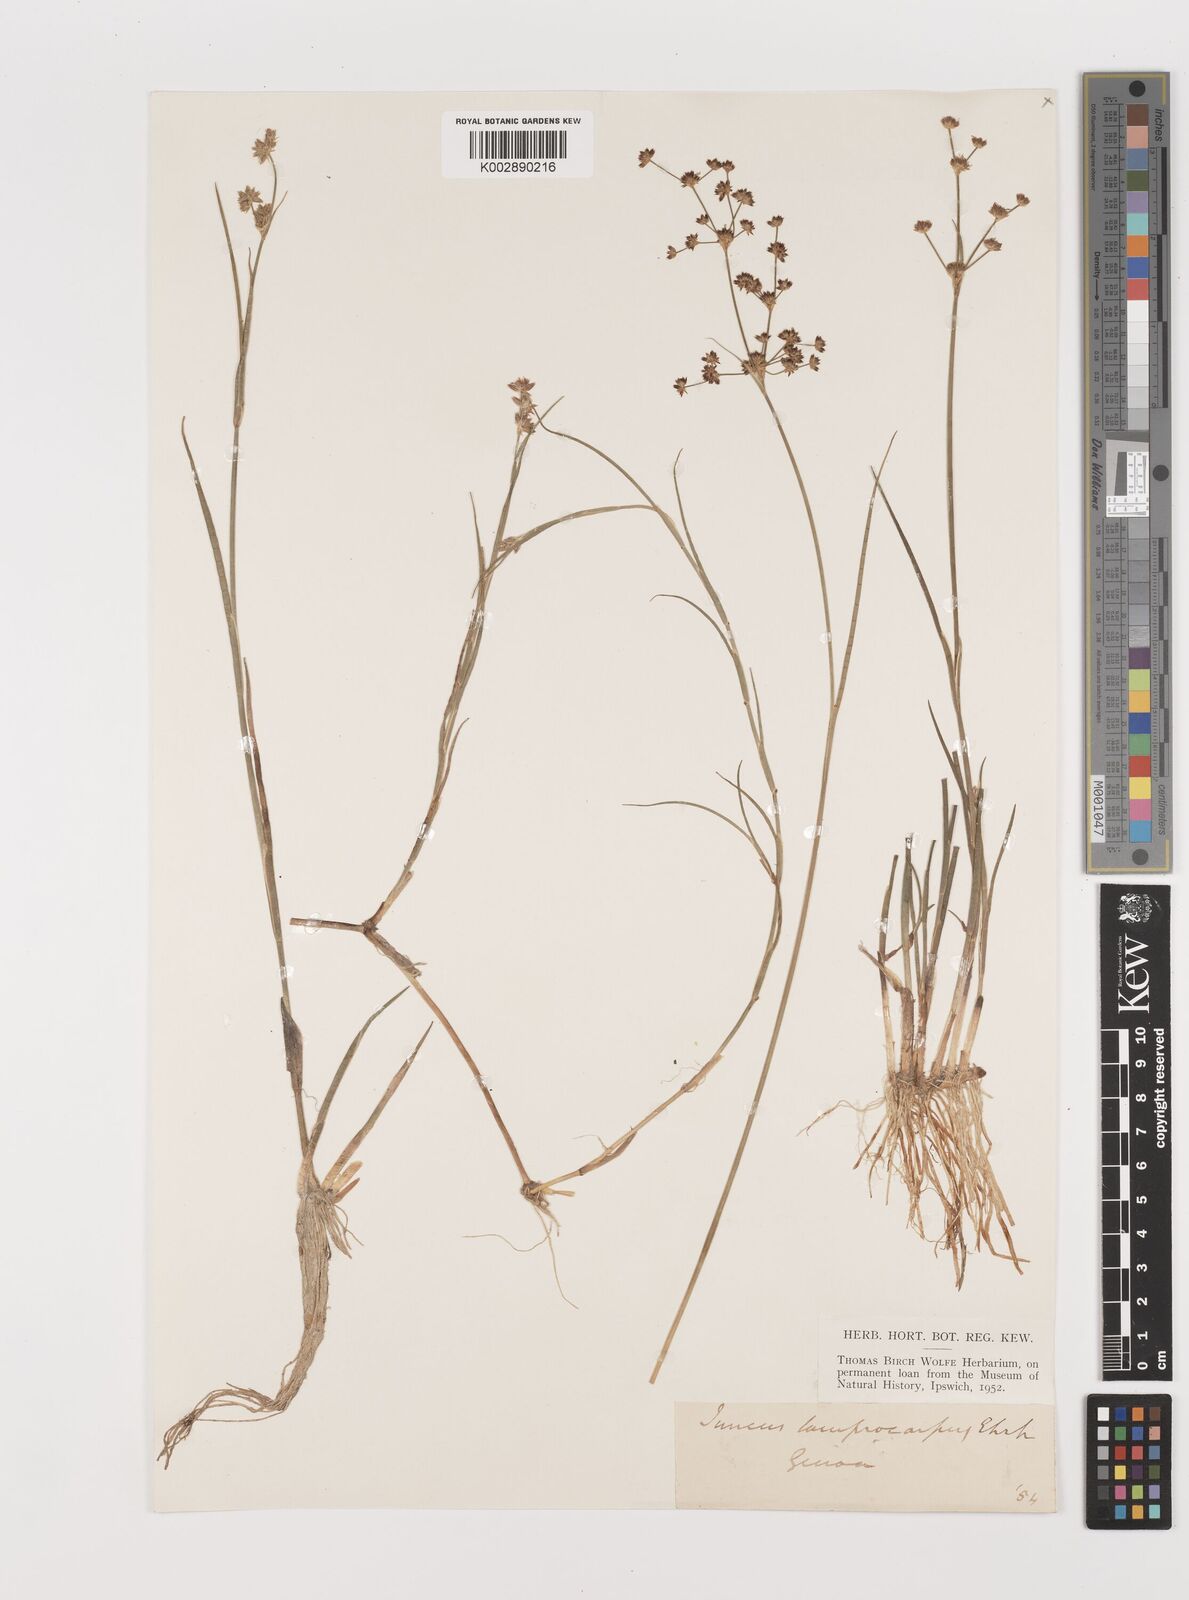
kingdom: Plantae
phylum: Tracheophyta
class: Liliopsida
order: Poales
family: Juncaceae
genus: Juncus
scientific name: Juncus articulatus
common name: Jointed rush
